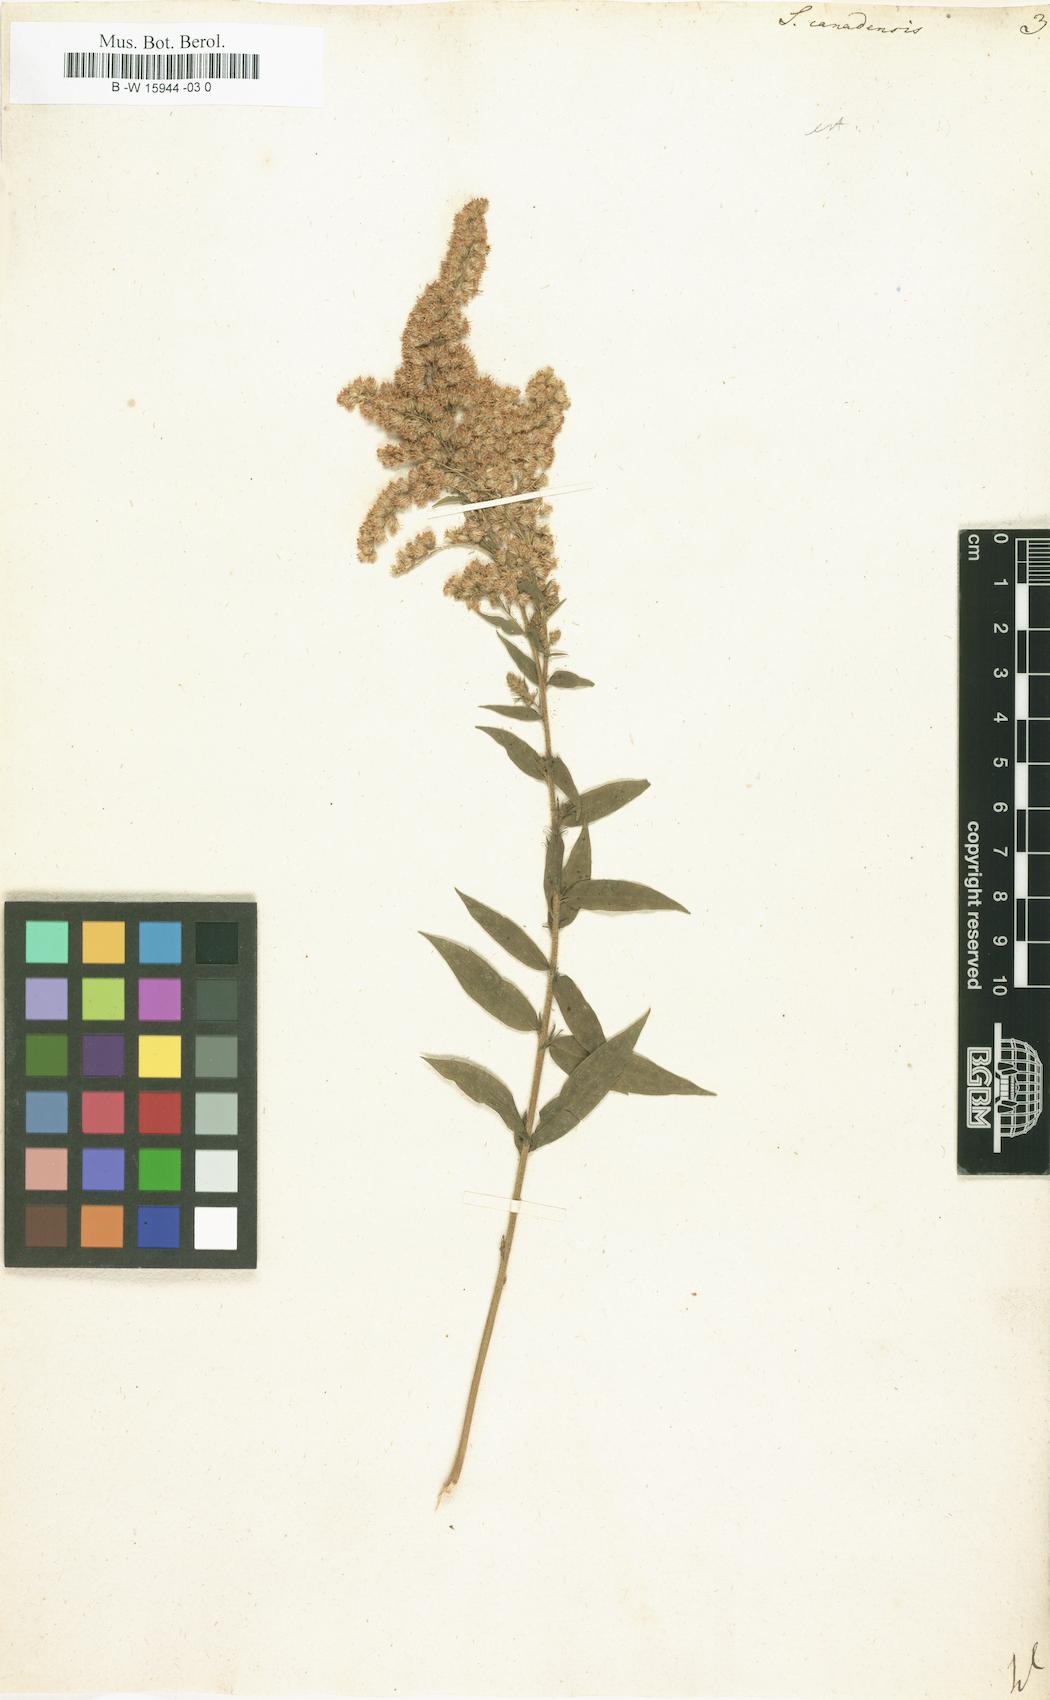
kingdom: Plantae
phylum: Tracheophyta
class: Magnoliopsida
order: Asterales
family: Asteraceae
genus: Solidago
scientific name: Solidago canadensis
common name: Canada goldenrod
